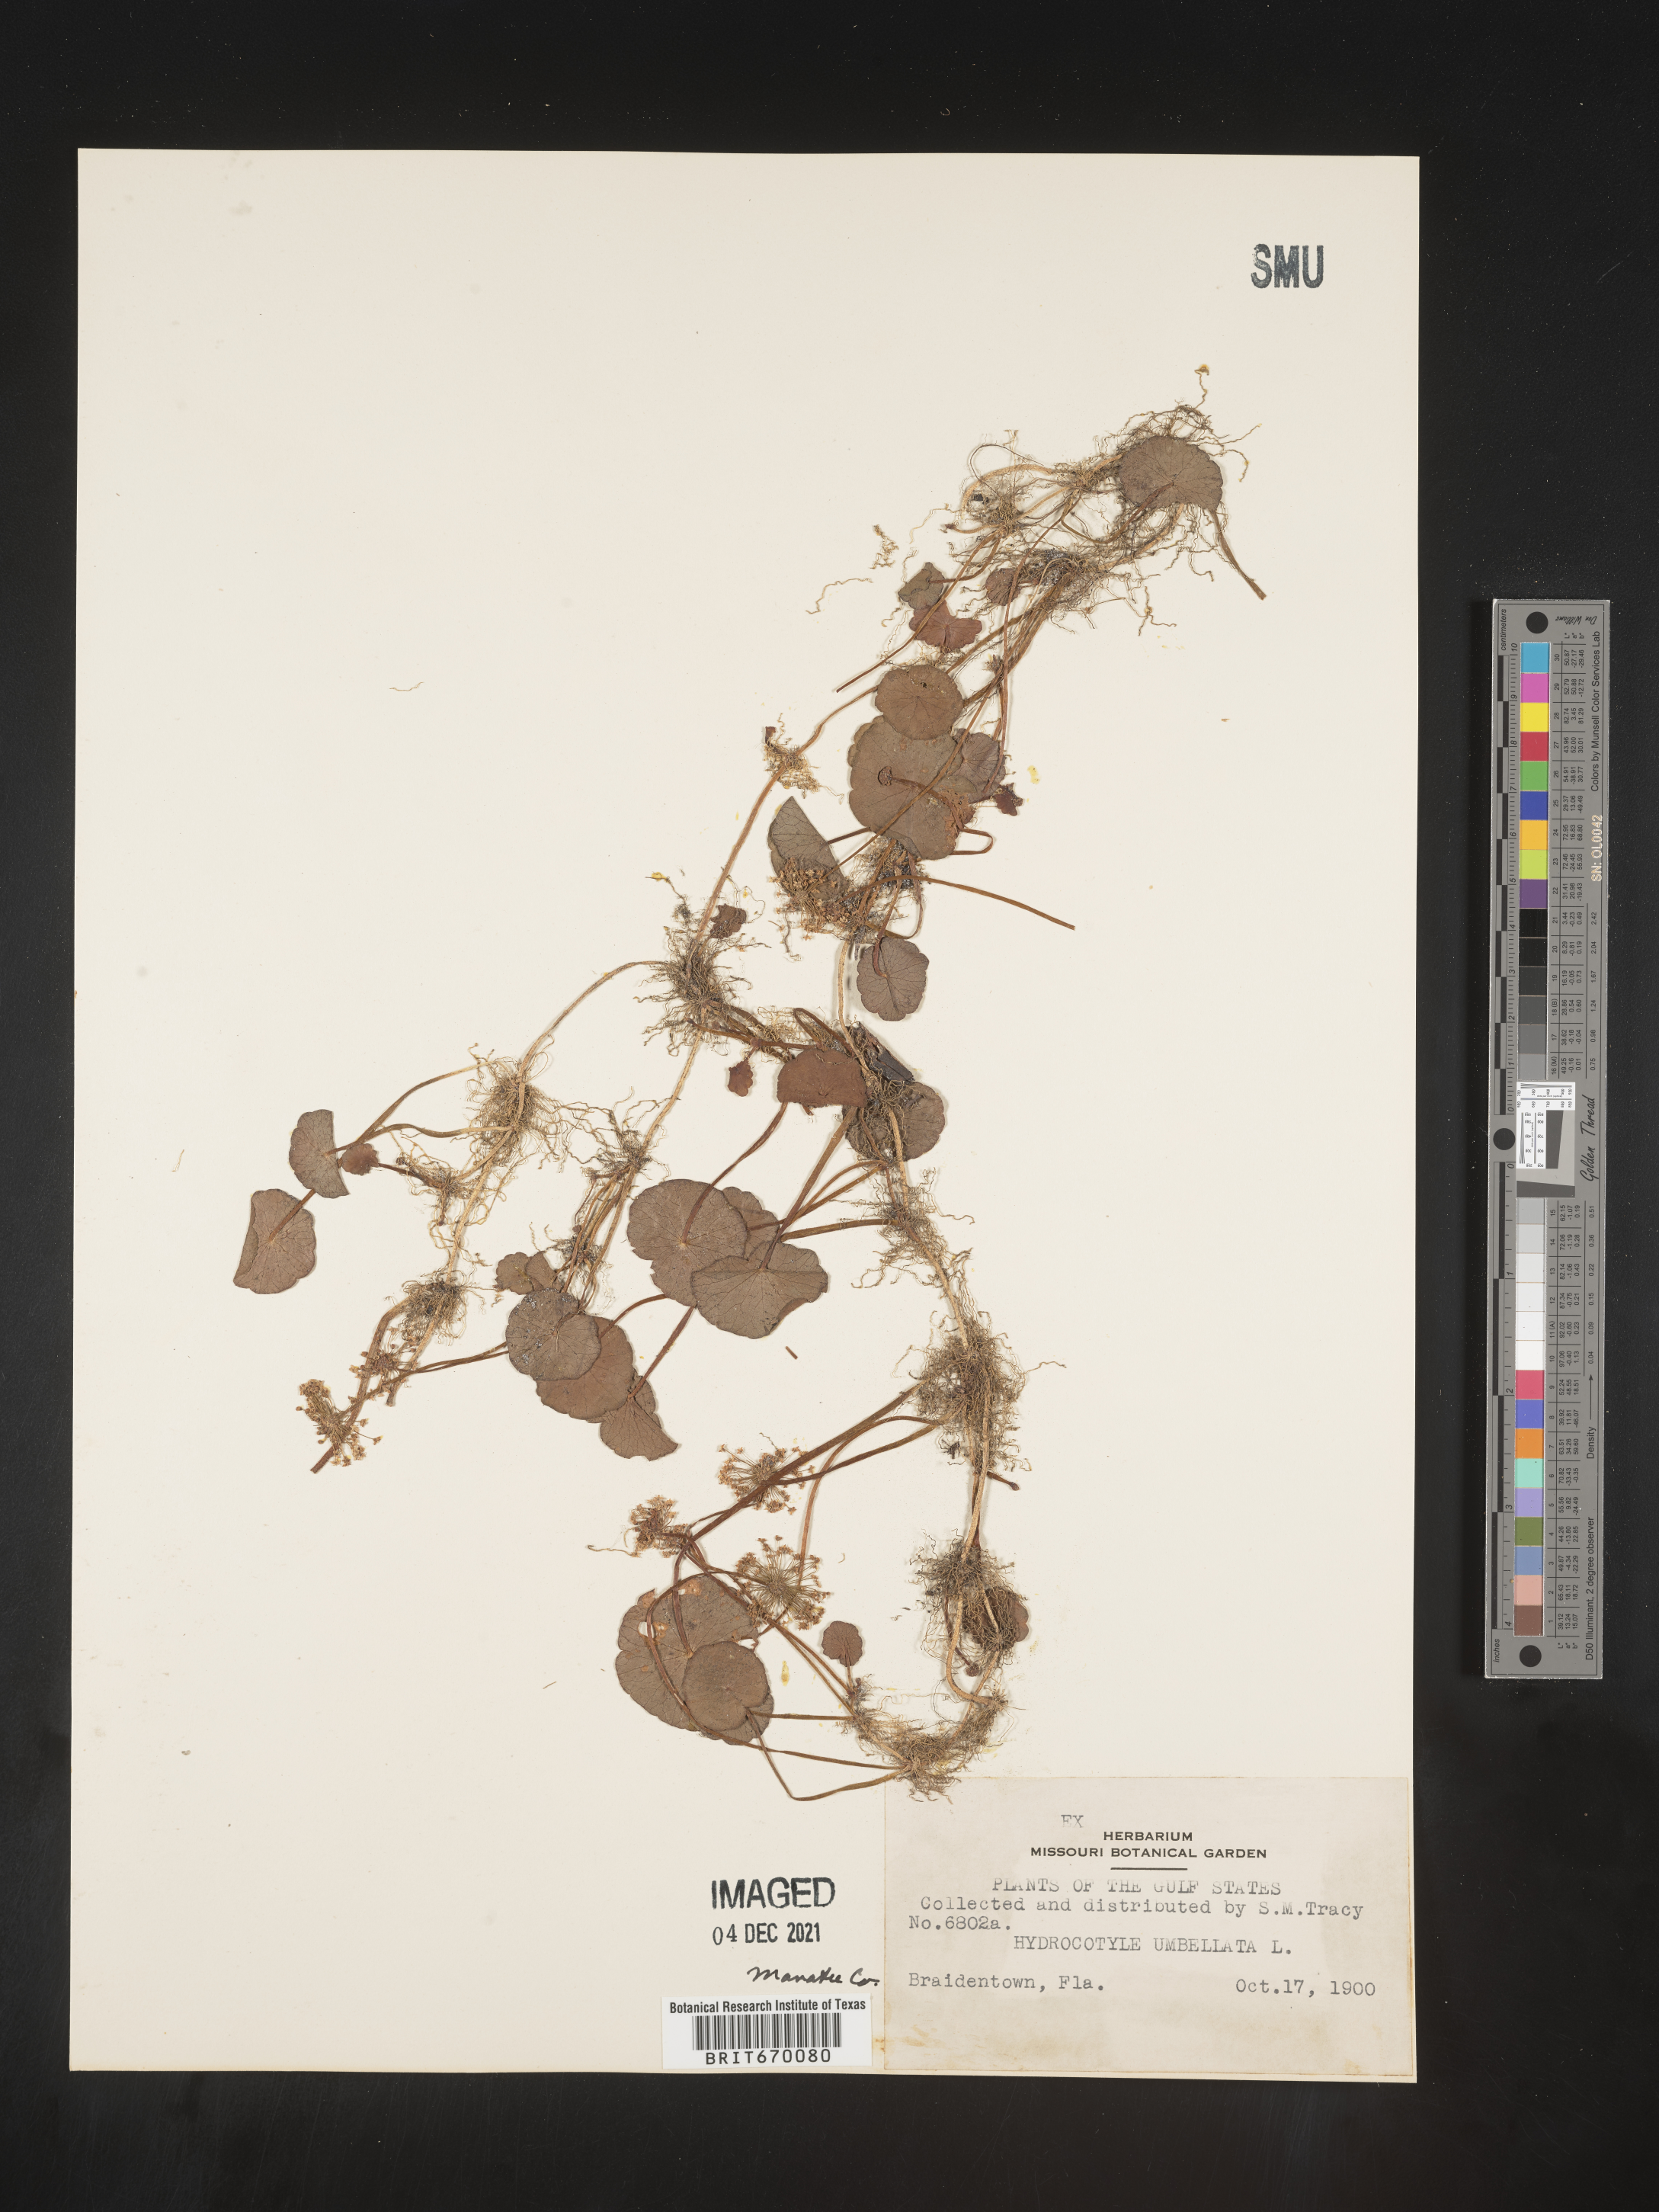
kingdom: Plantae
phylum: Tracheophyta
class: Magnoliopsida
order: Apiales
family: Araliaceae
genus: Hydrocotyle
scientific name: Hydrocotyle umbellata
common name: Water pennywort
